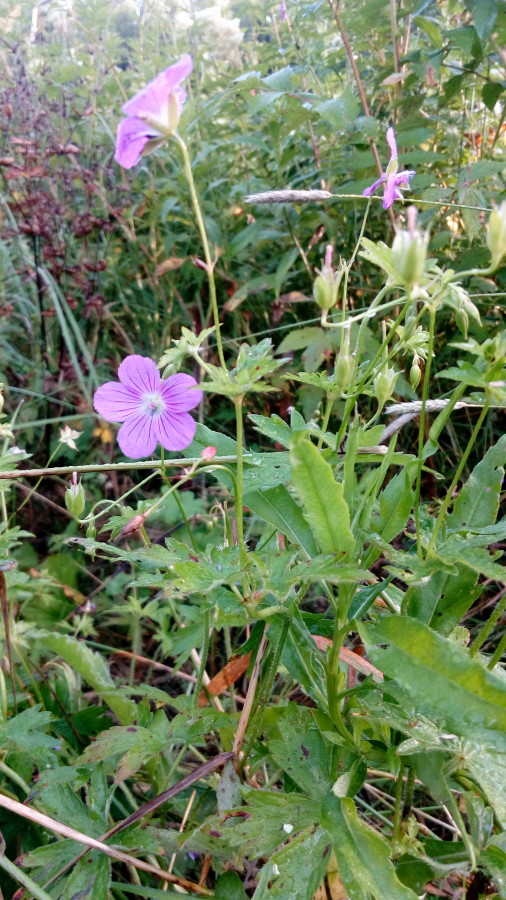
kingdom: Plantae
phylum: Tracheophyta
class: Magnoliopsida
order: Geraniales
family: Geraniaceae
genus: Geranium
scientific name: Geranium sylvaticum
